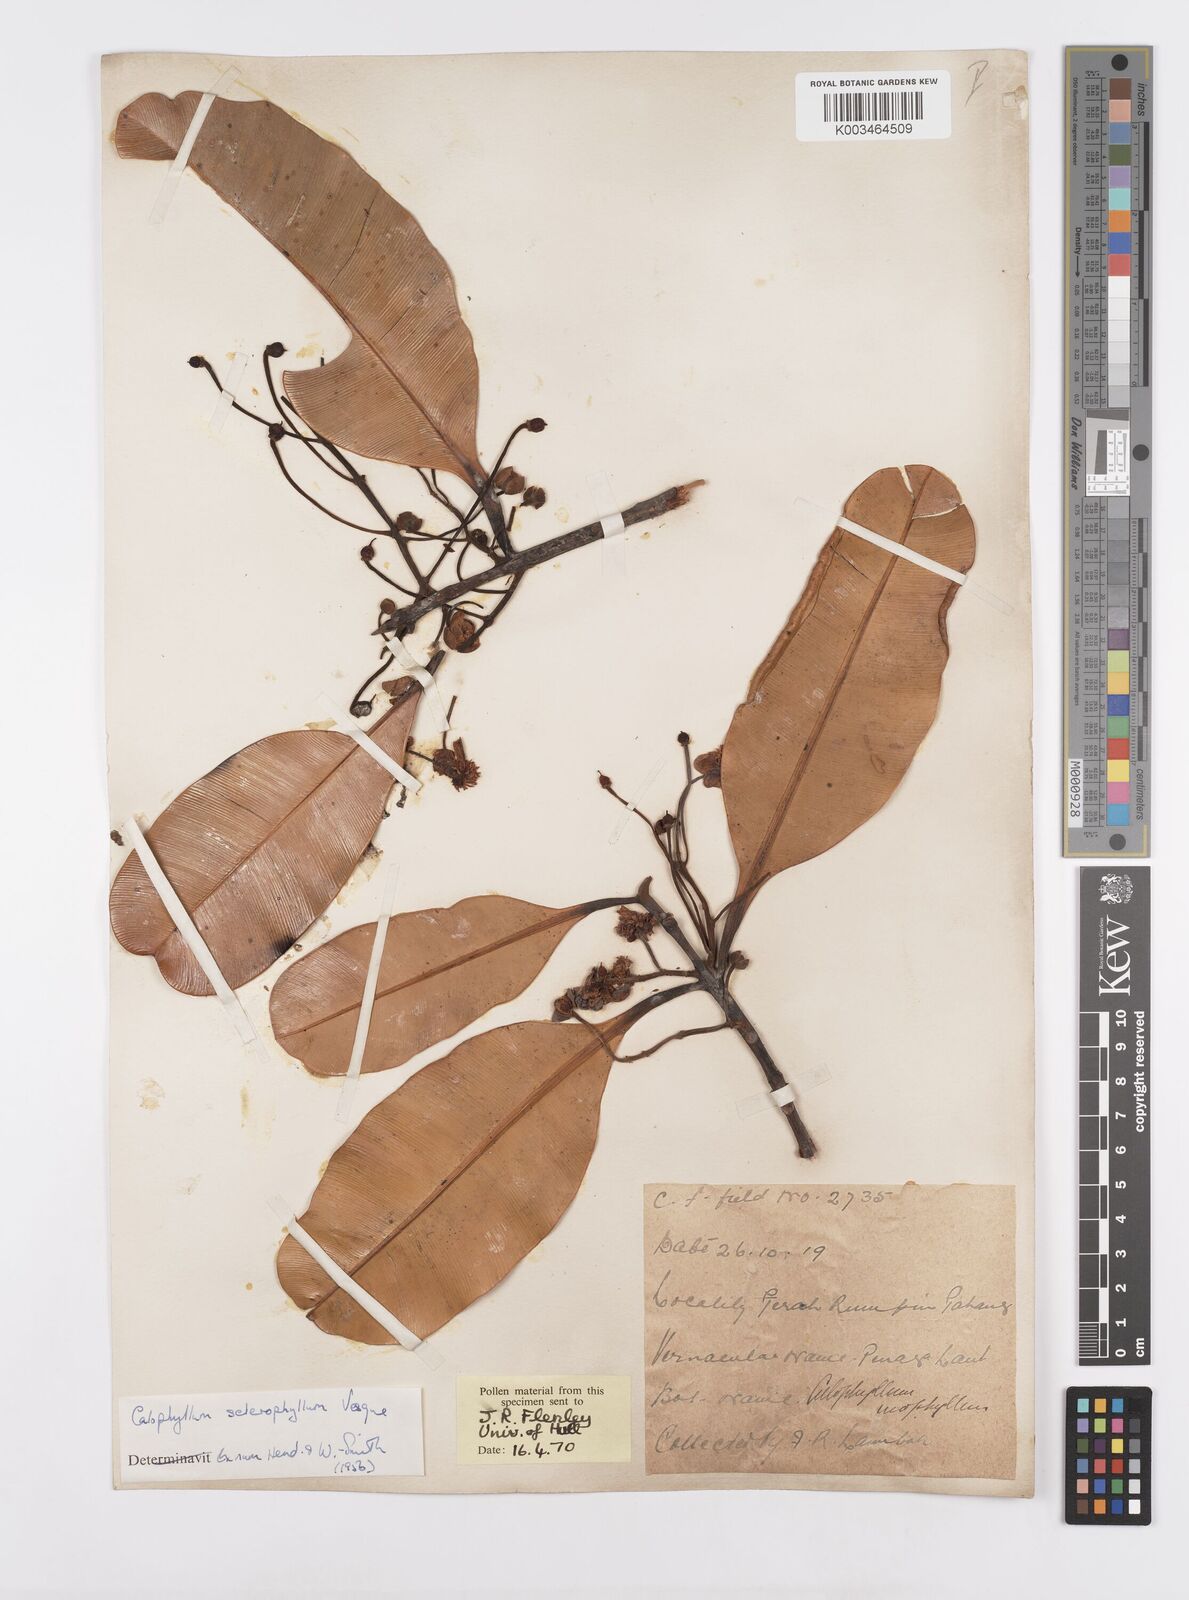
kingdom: Plantae
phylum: Tracheophyta
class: Magnoliopsida
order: Malpighiales
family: Calophyllaceae
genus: Calophyllum
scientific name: Calophyllum sclerophyllum
